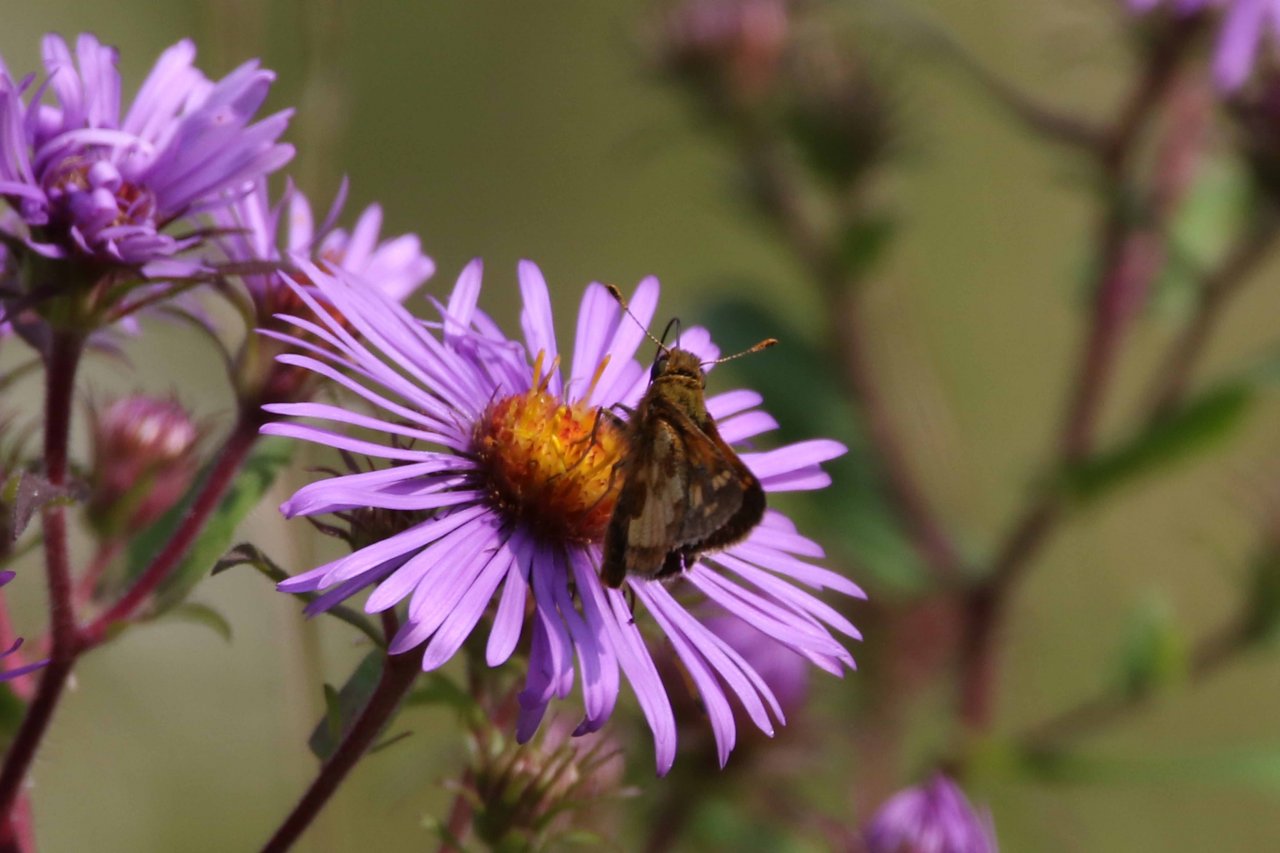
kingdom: Animalia
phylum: Arthropoda
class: Insecta
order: Lepidoptera
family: Hesperiidae
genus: Polites
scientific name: Polites coras
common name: Peck's Skipper
